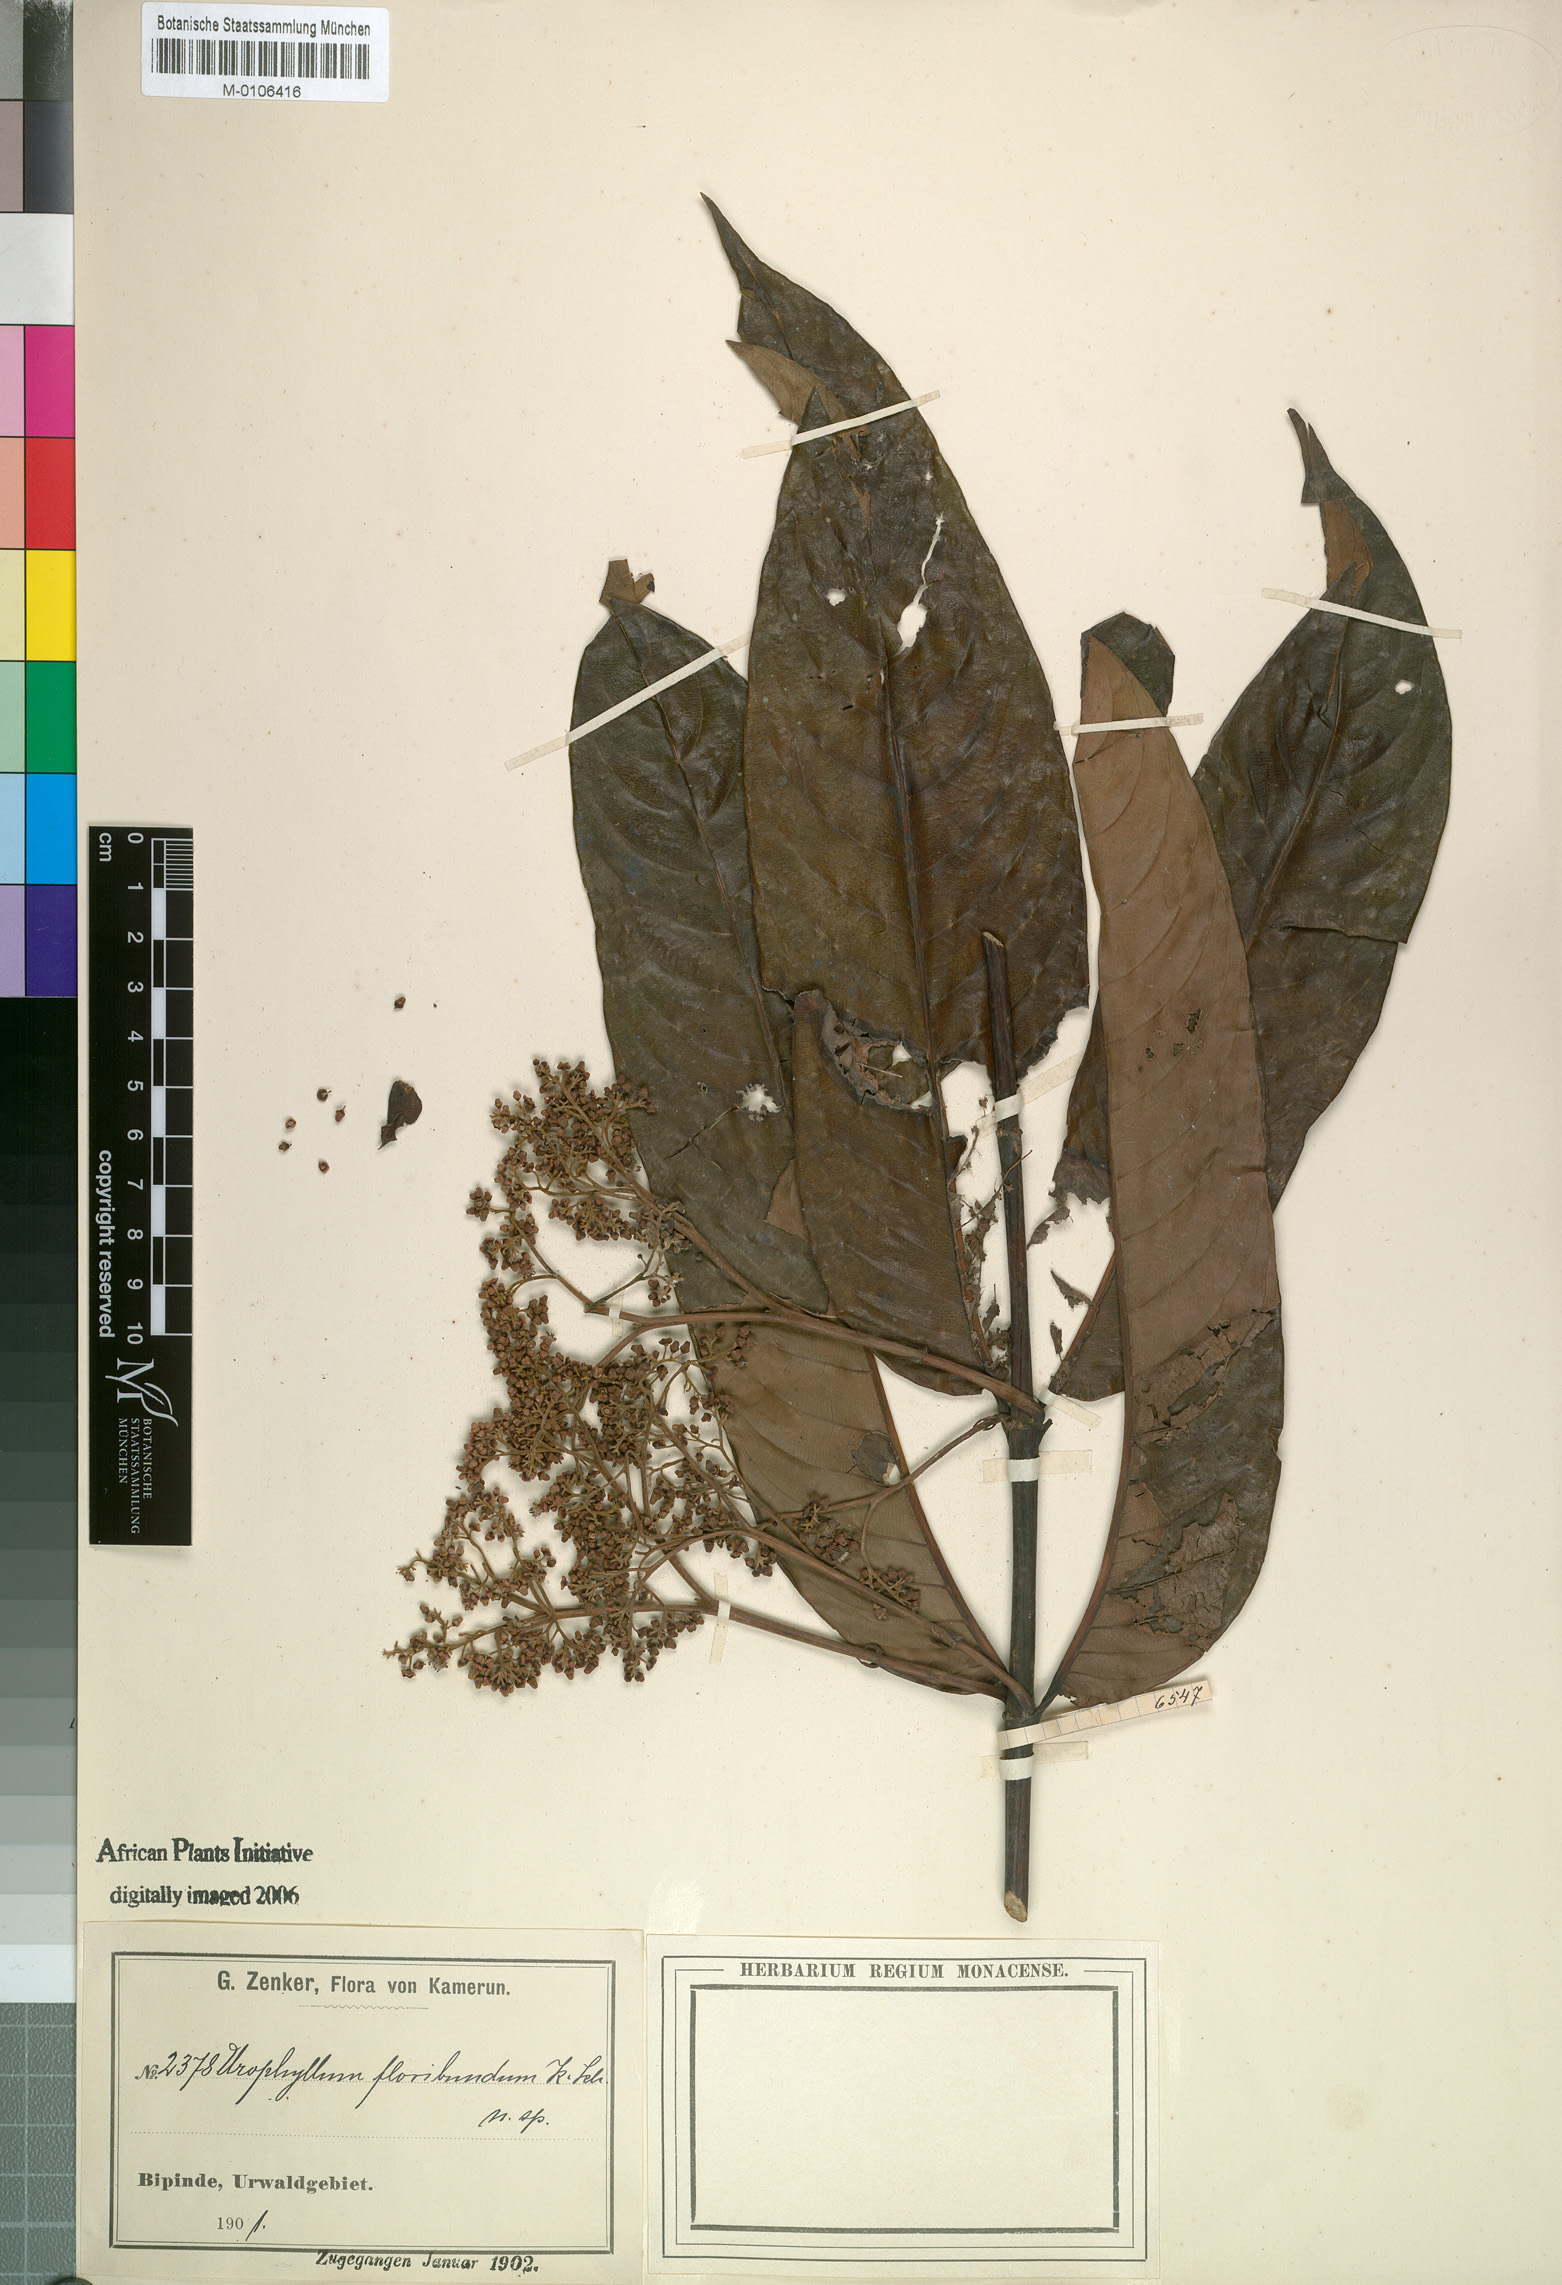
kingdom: Plantae
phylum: Tracheophyta
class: Magnoliopsida
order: Gentianales
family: Rubiaceae
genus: Pauridiantha
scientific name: Pauridiantha floribunda
